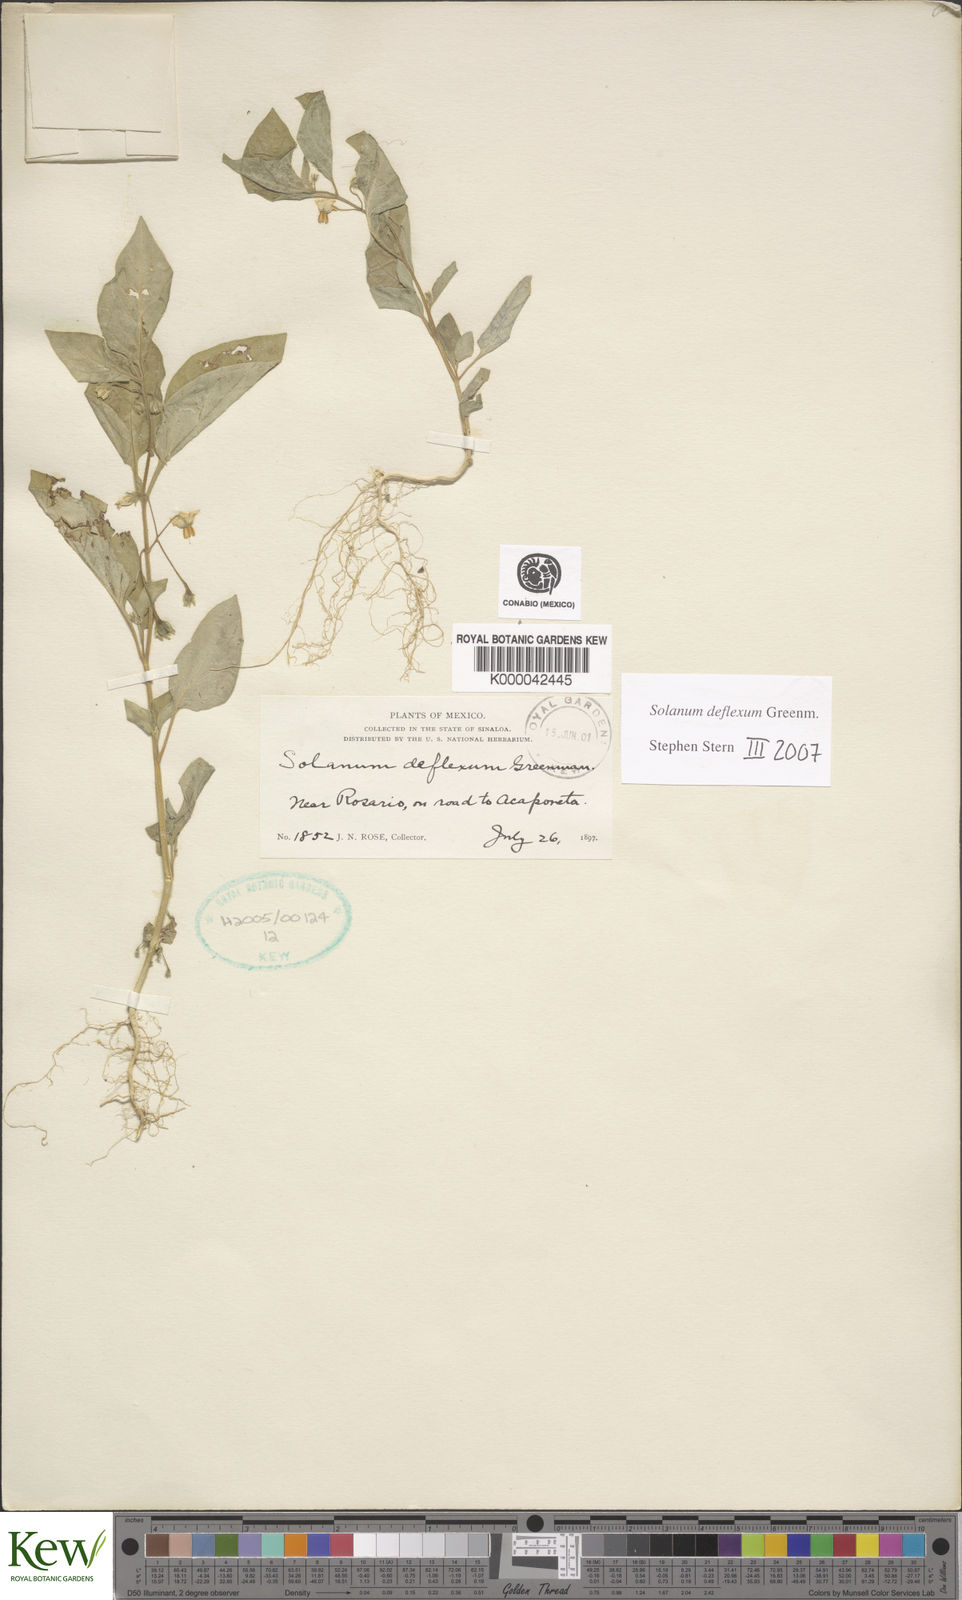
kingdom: Plantae
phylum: Tracheophyta
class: Magnoliopsida
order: Solanales
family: Solanaceae
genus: Solanum
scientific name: Solanum deflexum
